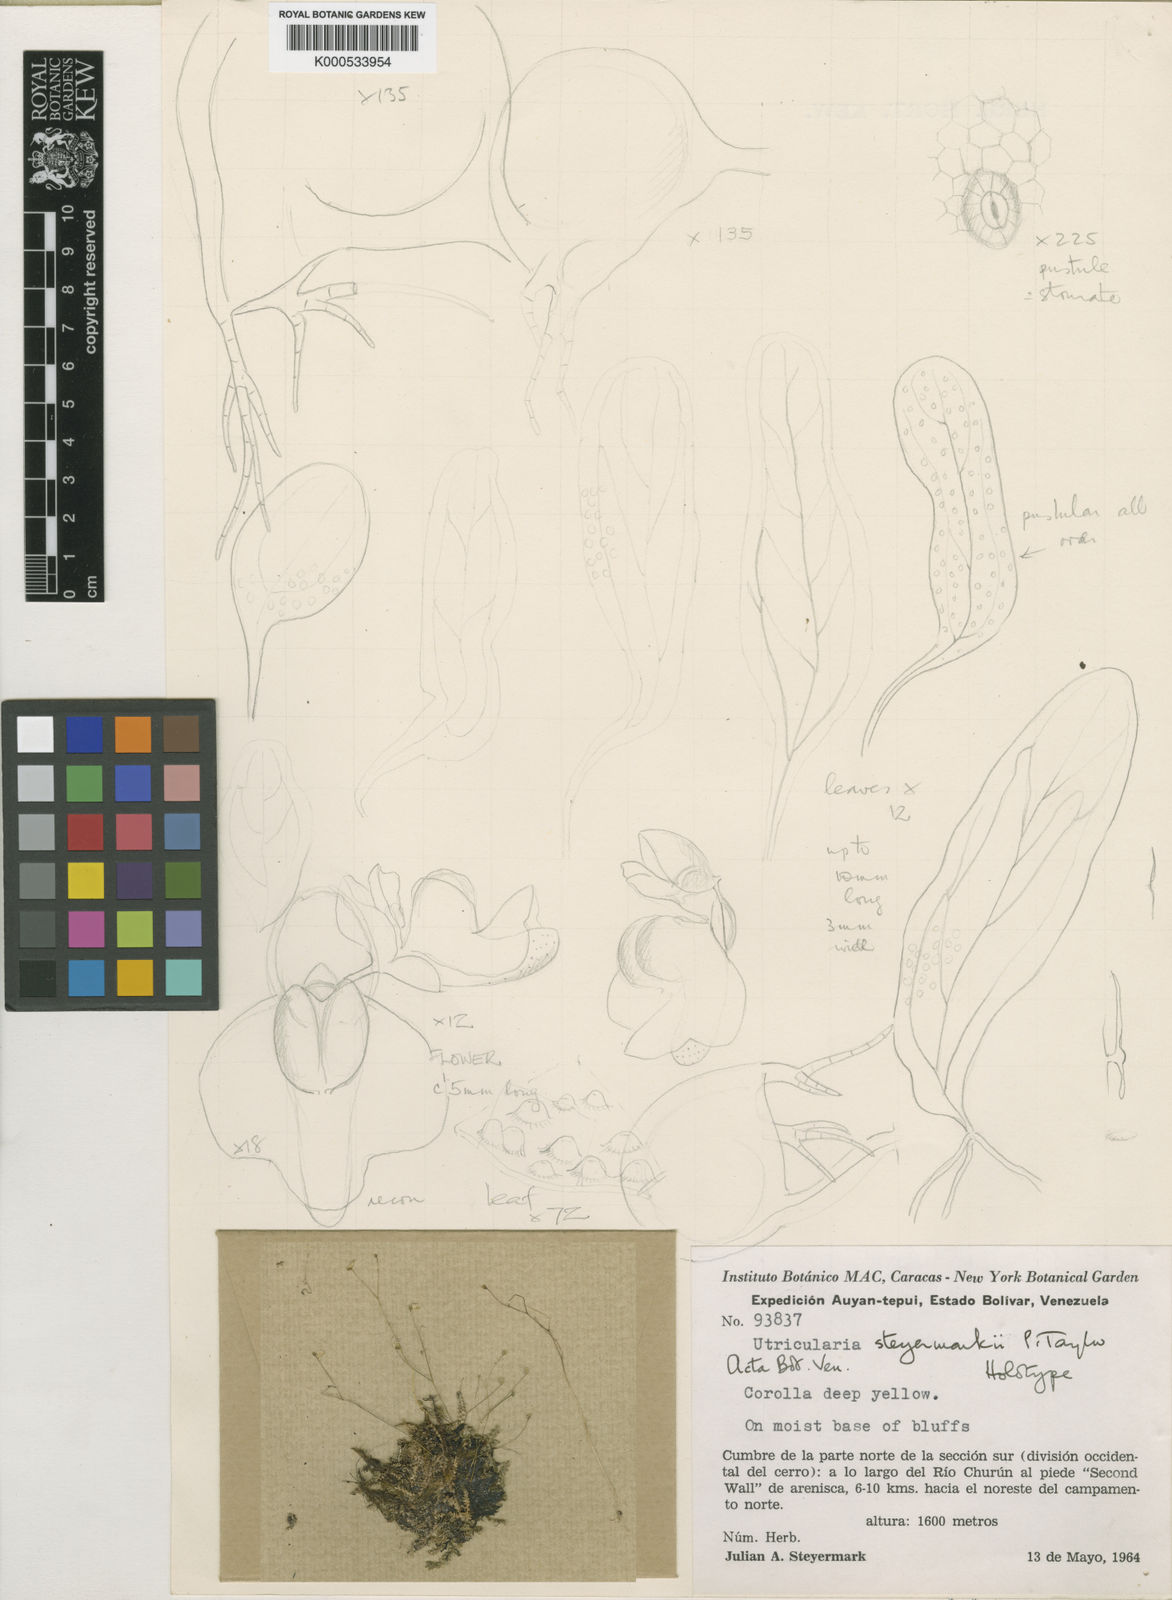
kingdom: Plantae
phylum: Tracheophyta
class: Magnoliopsida
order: Lamiales
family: Lentibulariaceae
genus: Utricularia
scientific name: Utricularia steyermarkii
